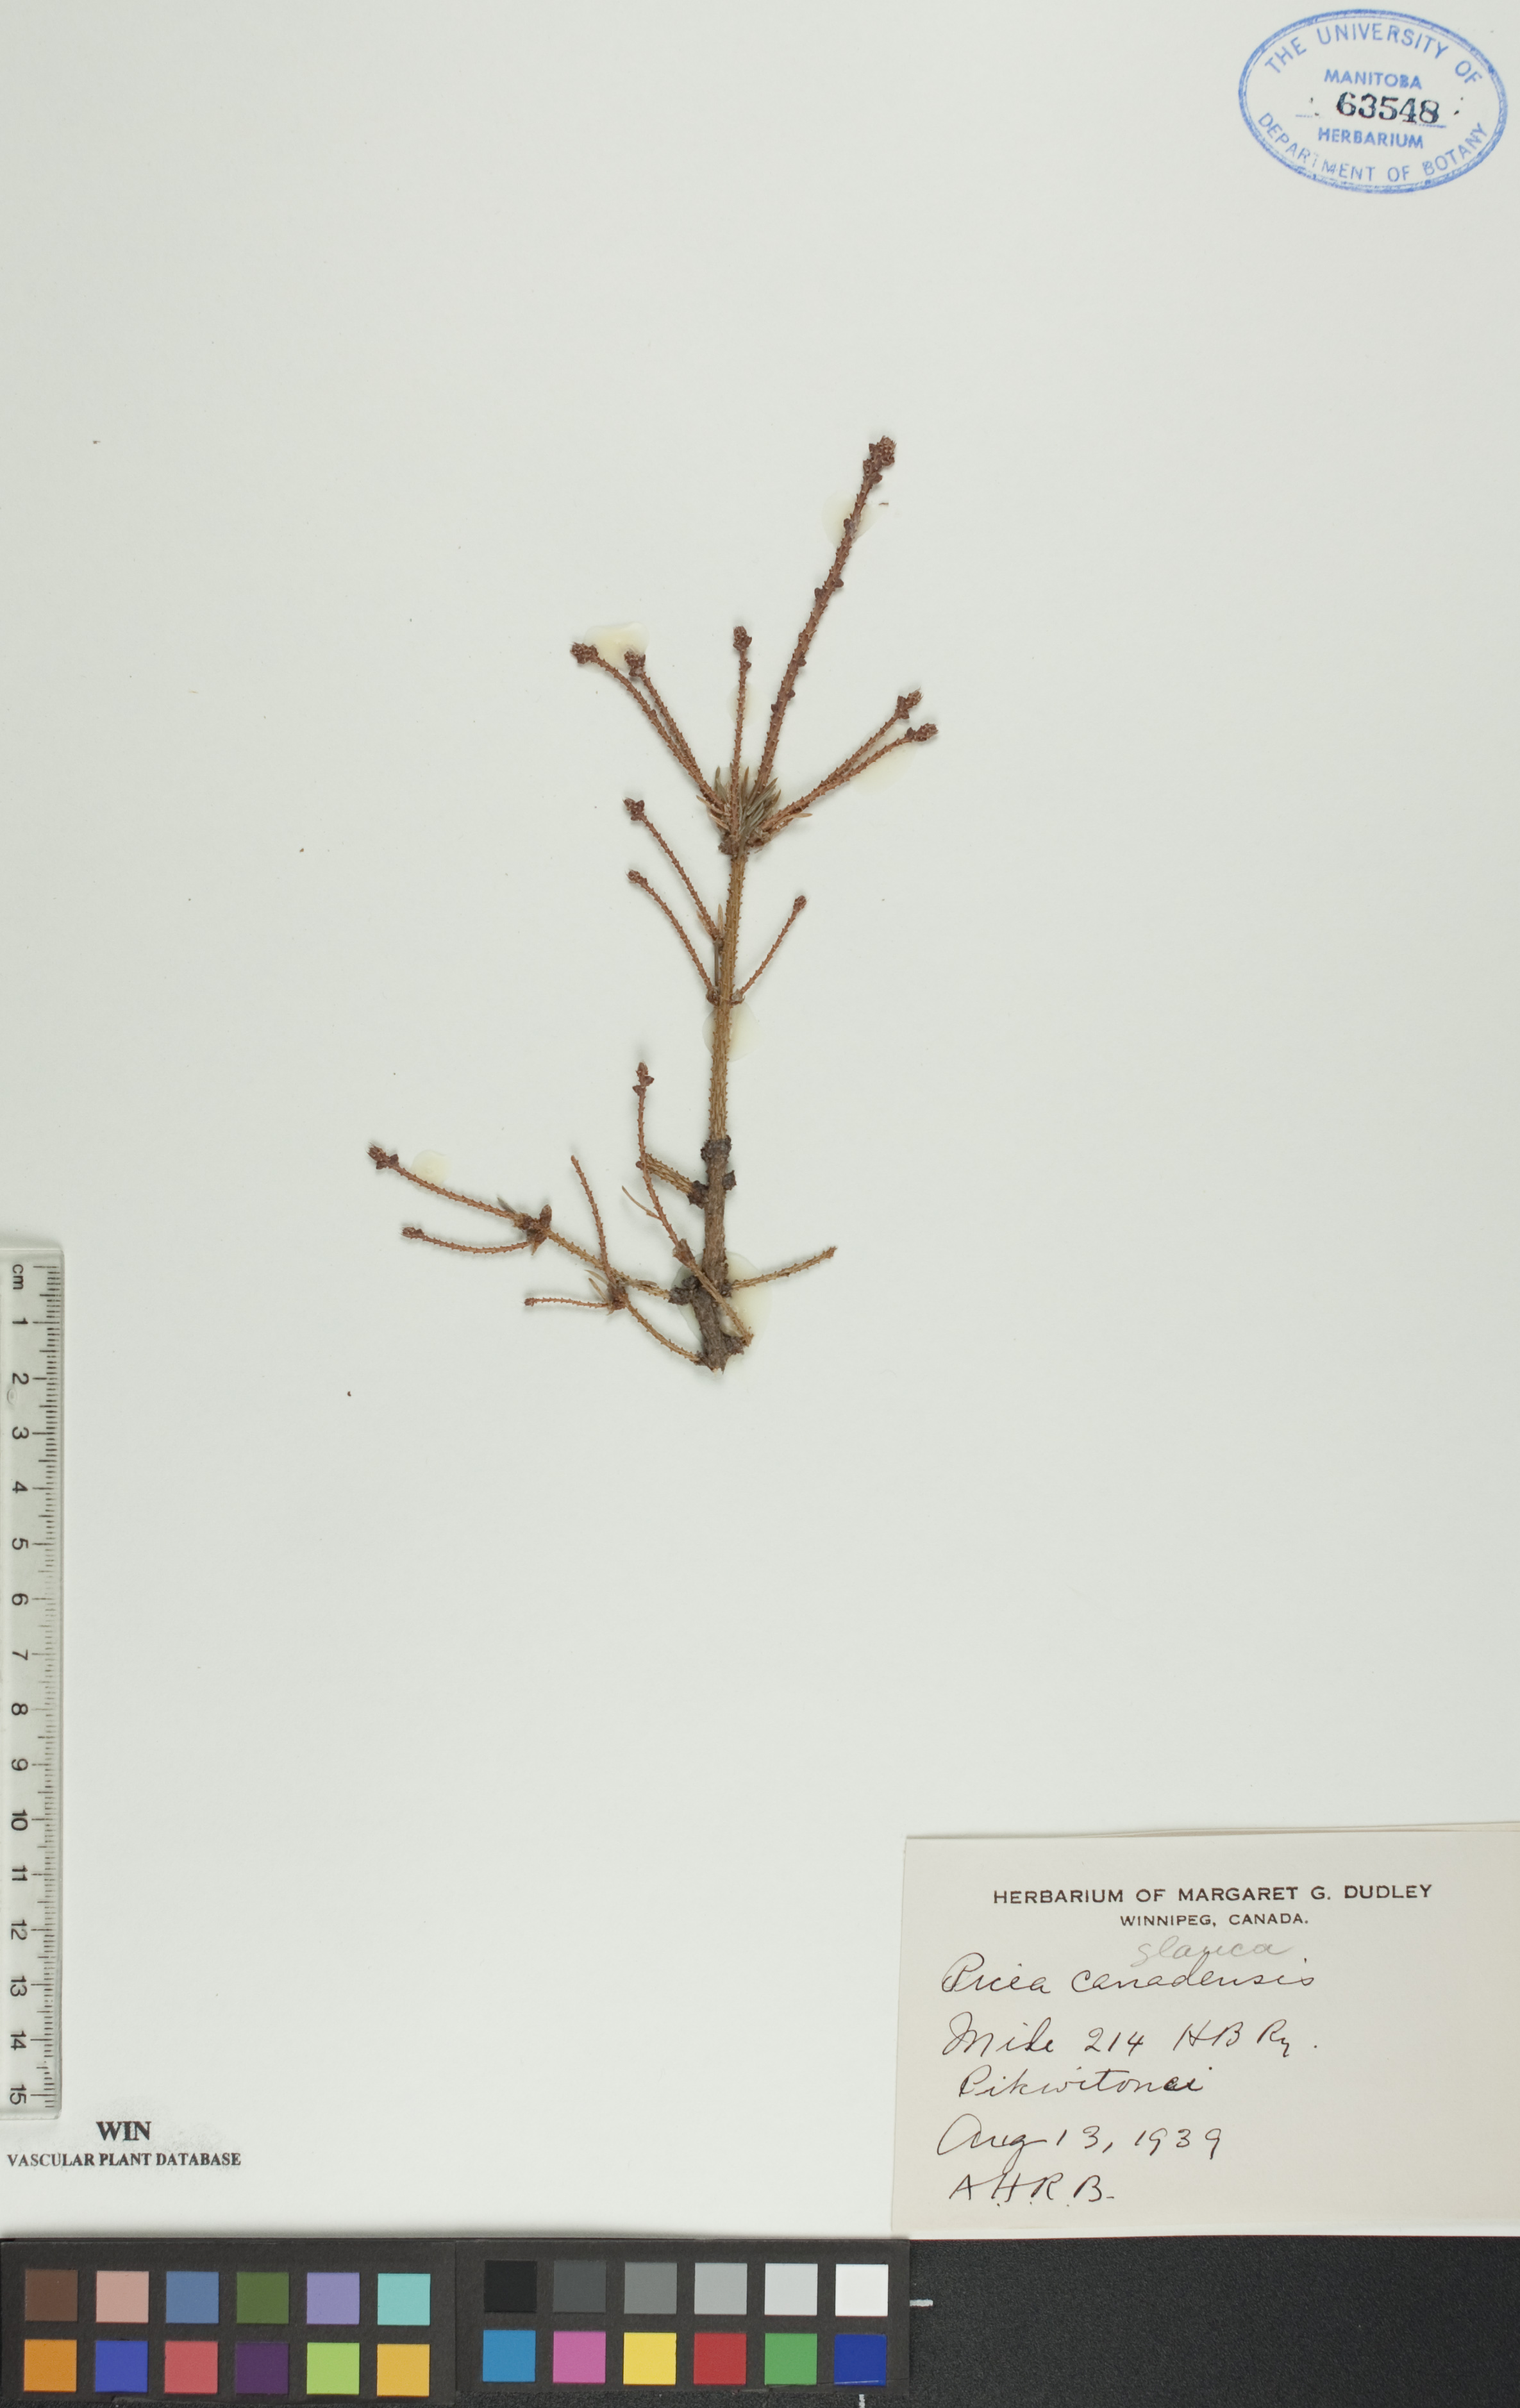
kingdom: Plantae
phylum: Tracheophyta
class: Pinopsida
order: Pinales
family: Pinaceae
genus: Picea
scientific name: Picea glauca
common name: White spruce
